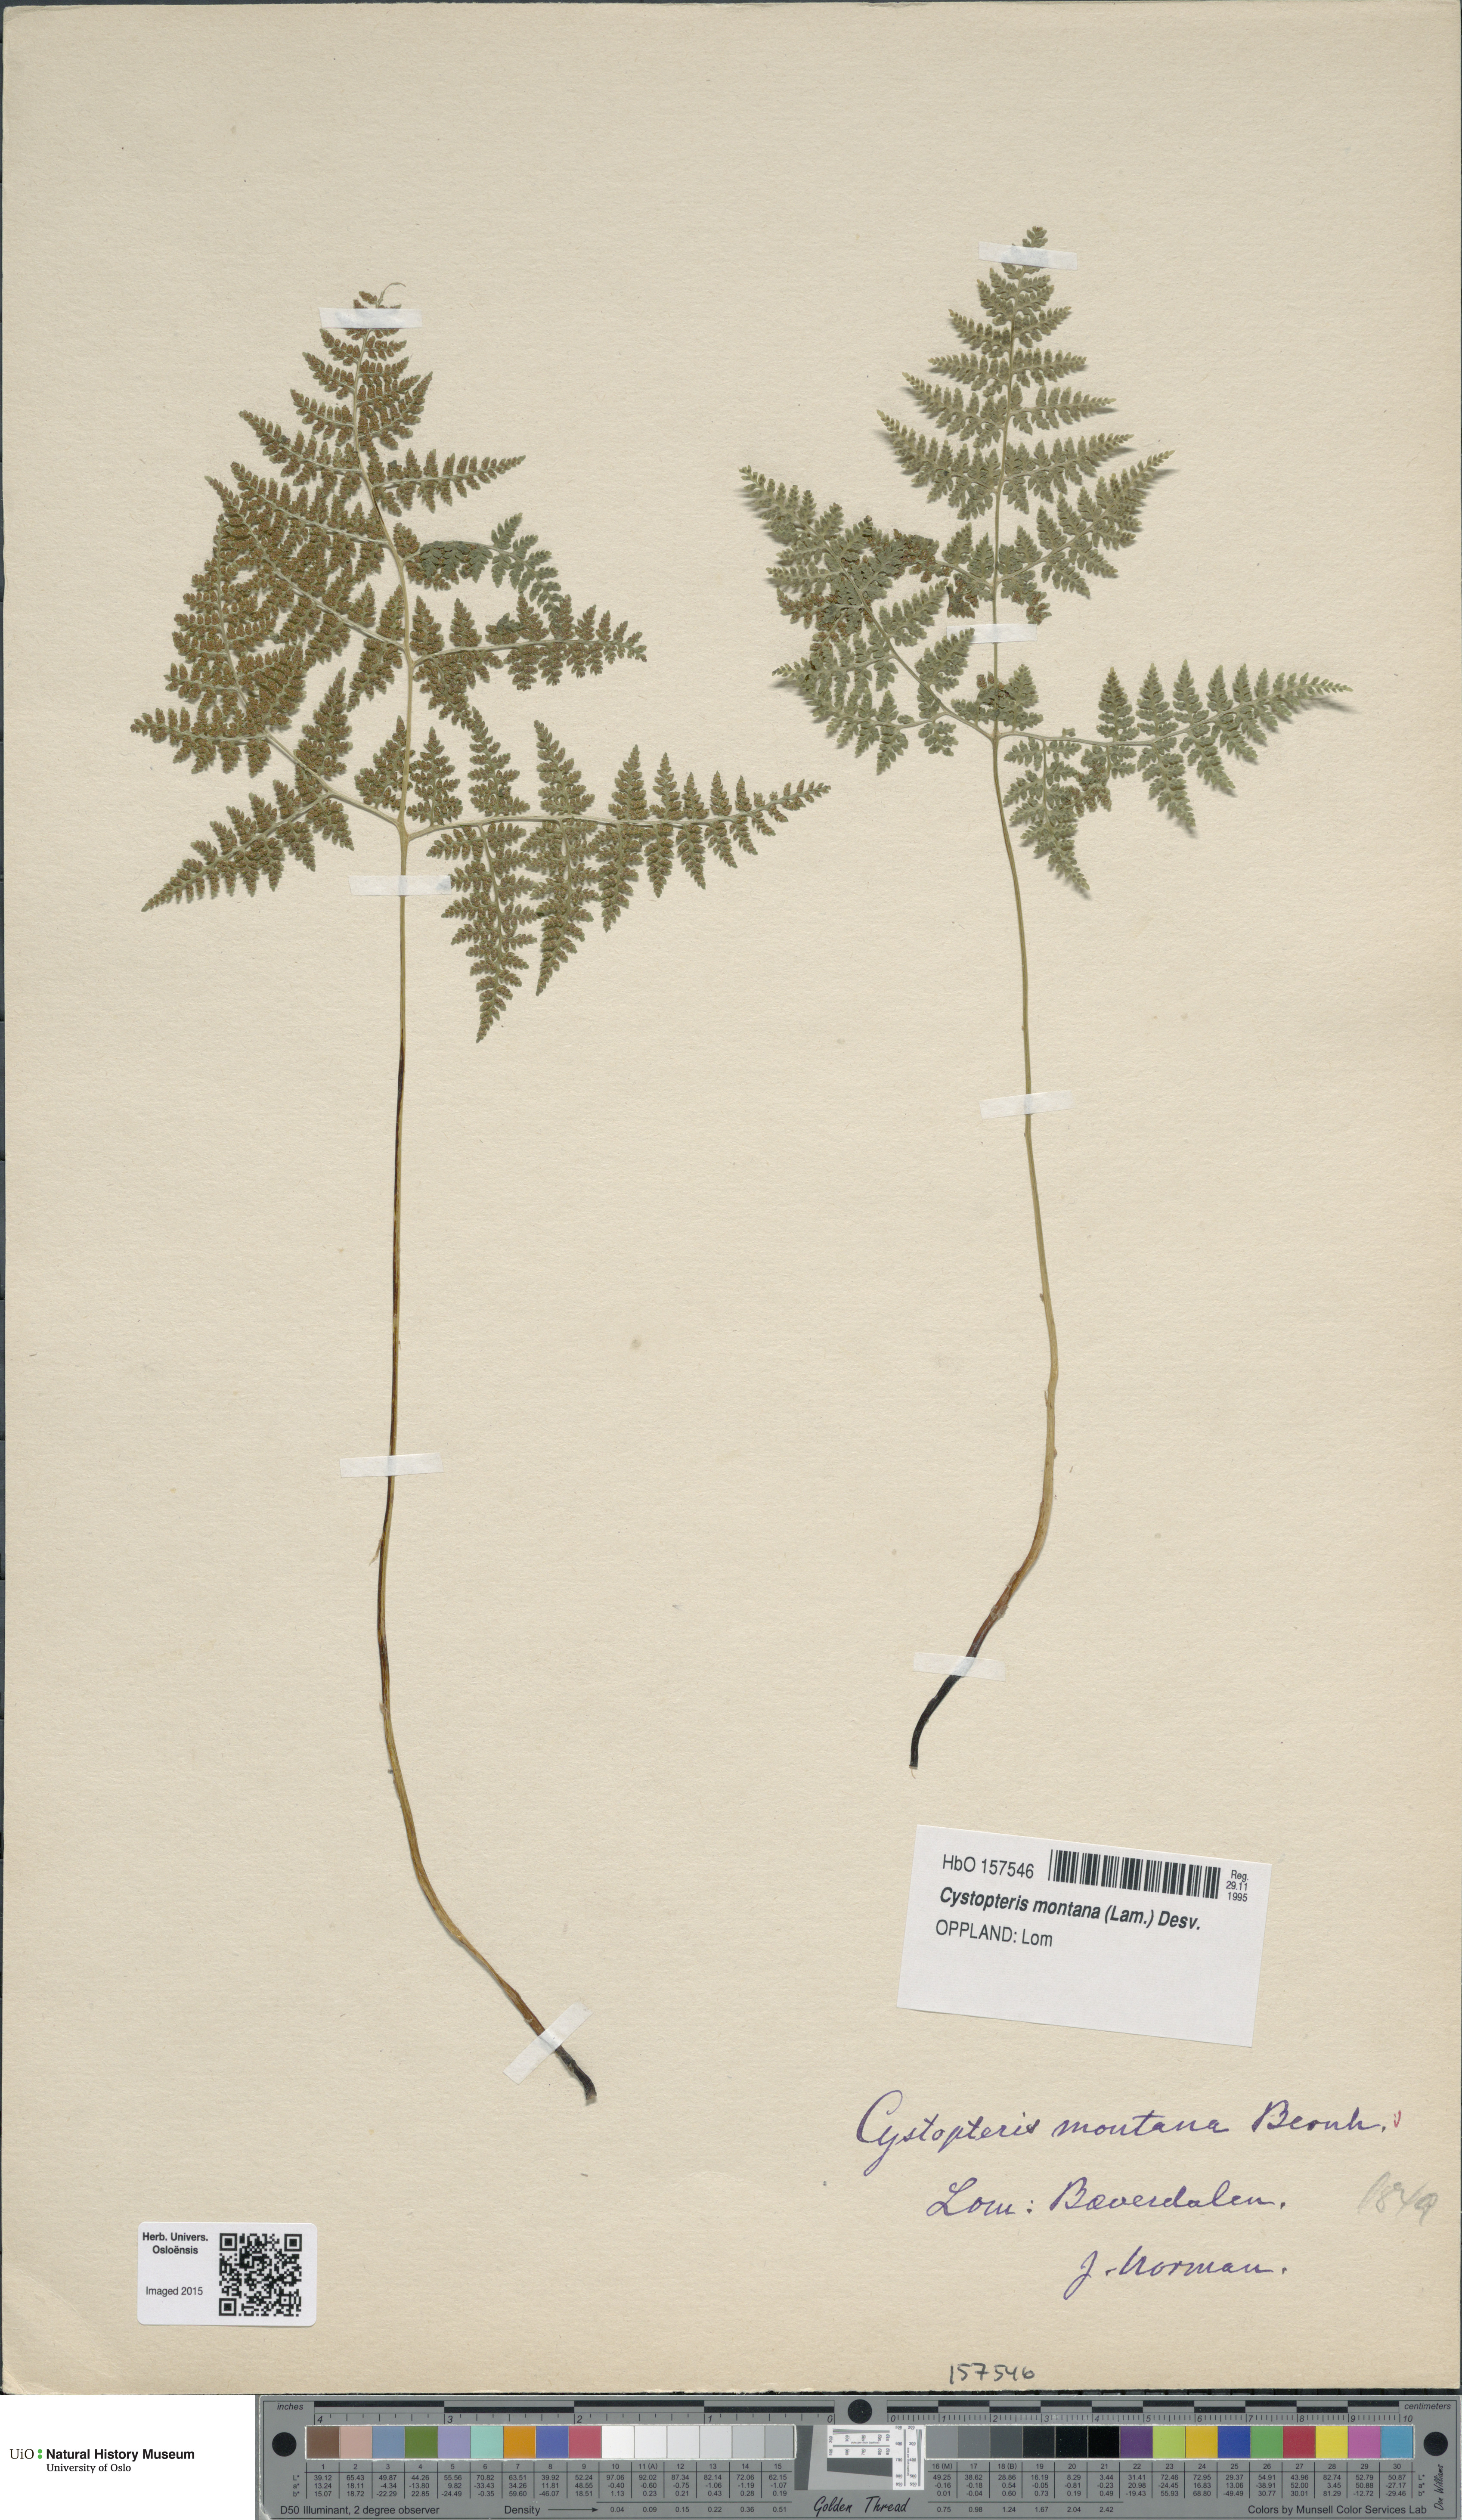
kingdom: Plantae
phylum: Tracheophyta
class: Polypodiopsida
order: Polypodiales
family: Cystopteridaceae
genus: Cystopteris
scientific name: Cystopteris montana
